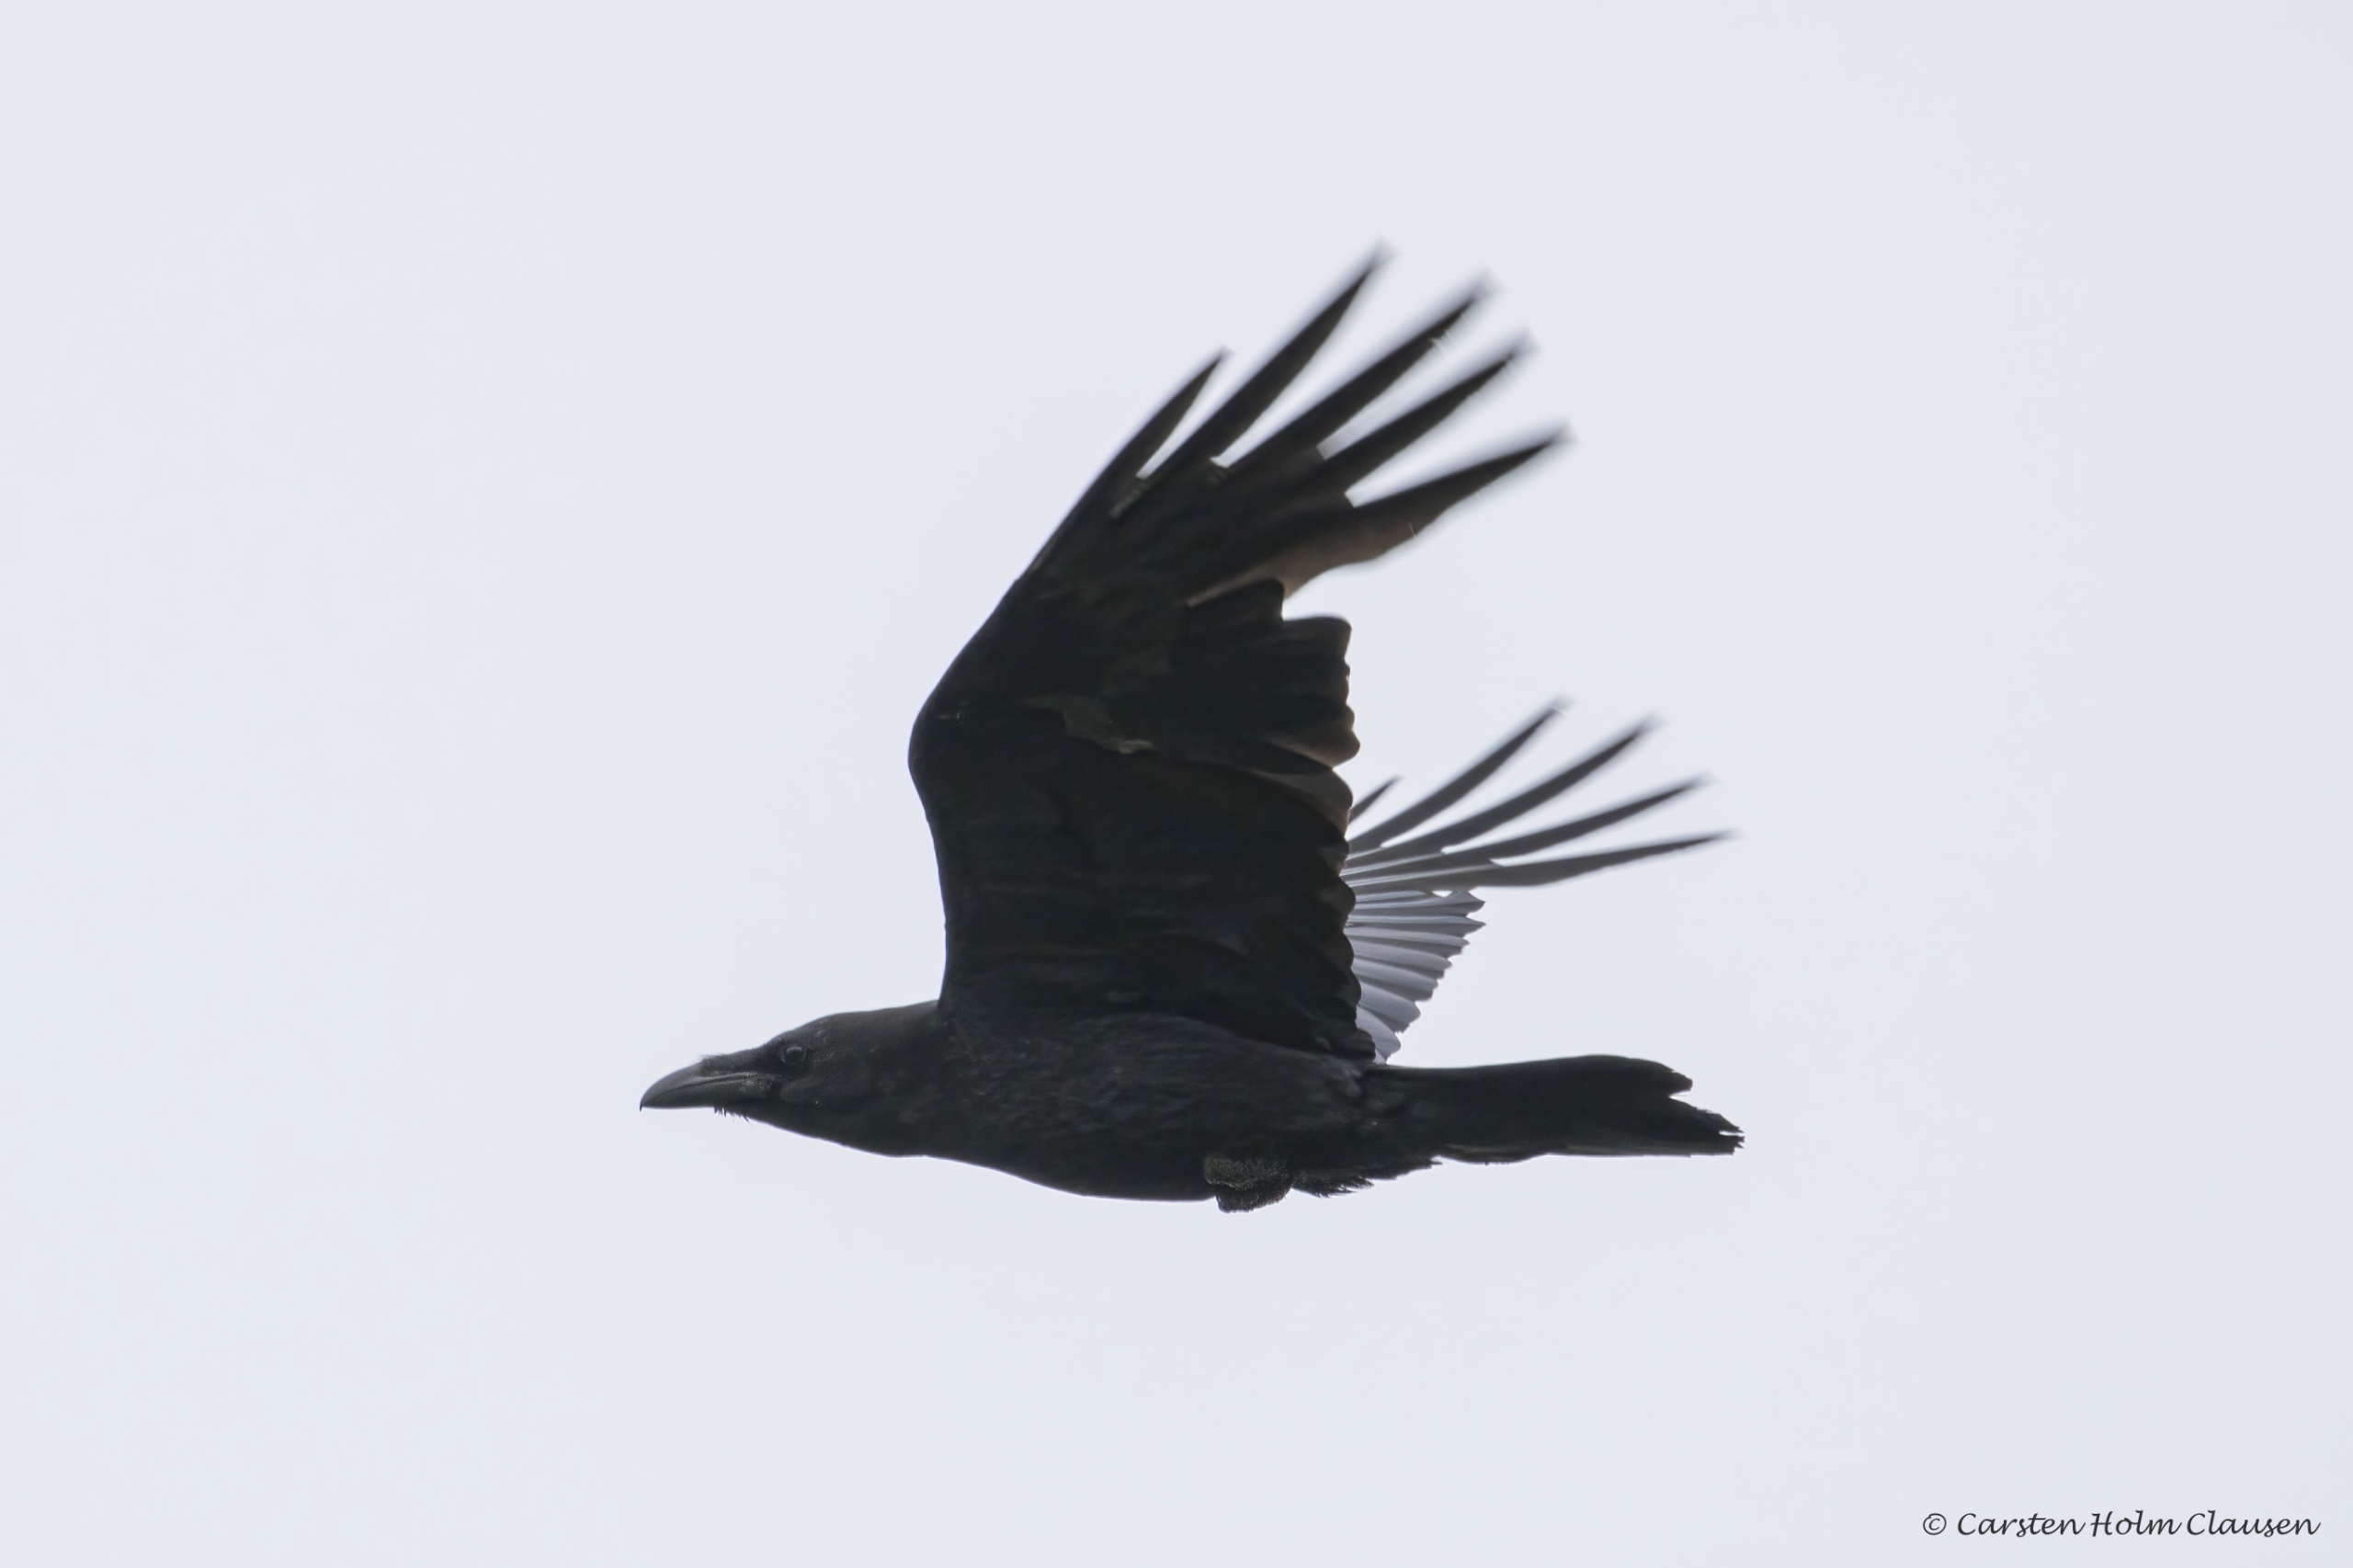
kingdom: Animalia
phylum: Chordata
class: Aves
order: Passeriformes
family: Corvidae
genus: Corvus
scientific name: Corvus corax
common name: Ravn
